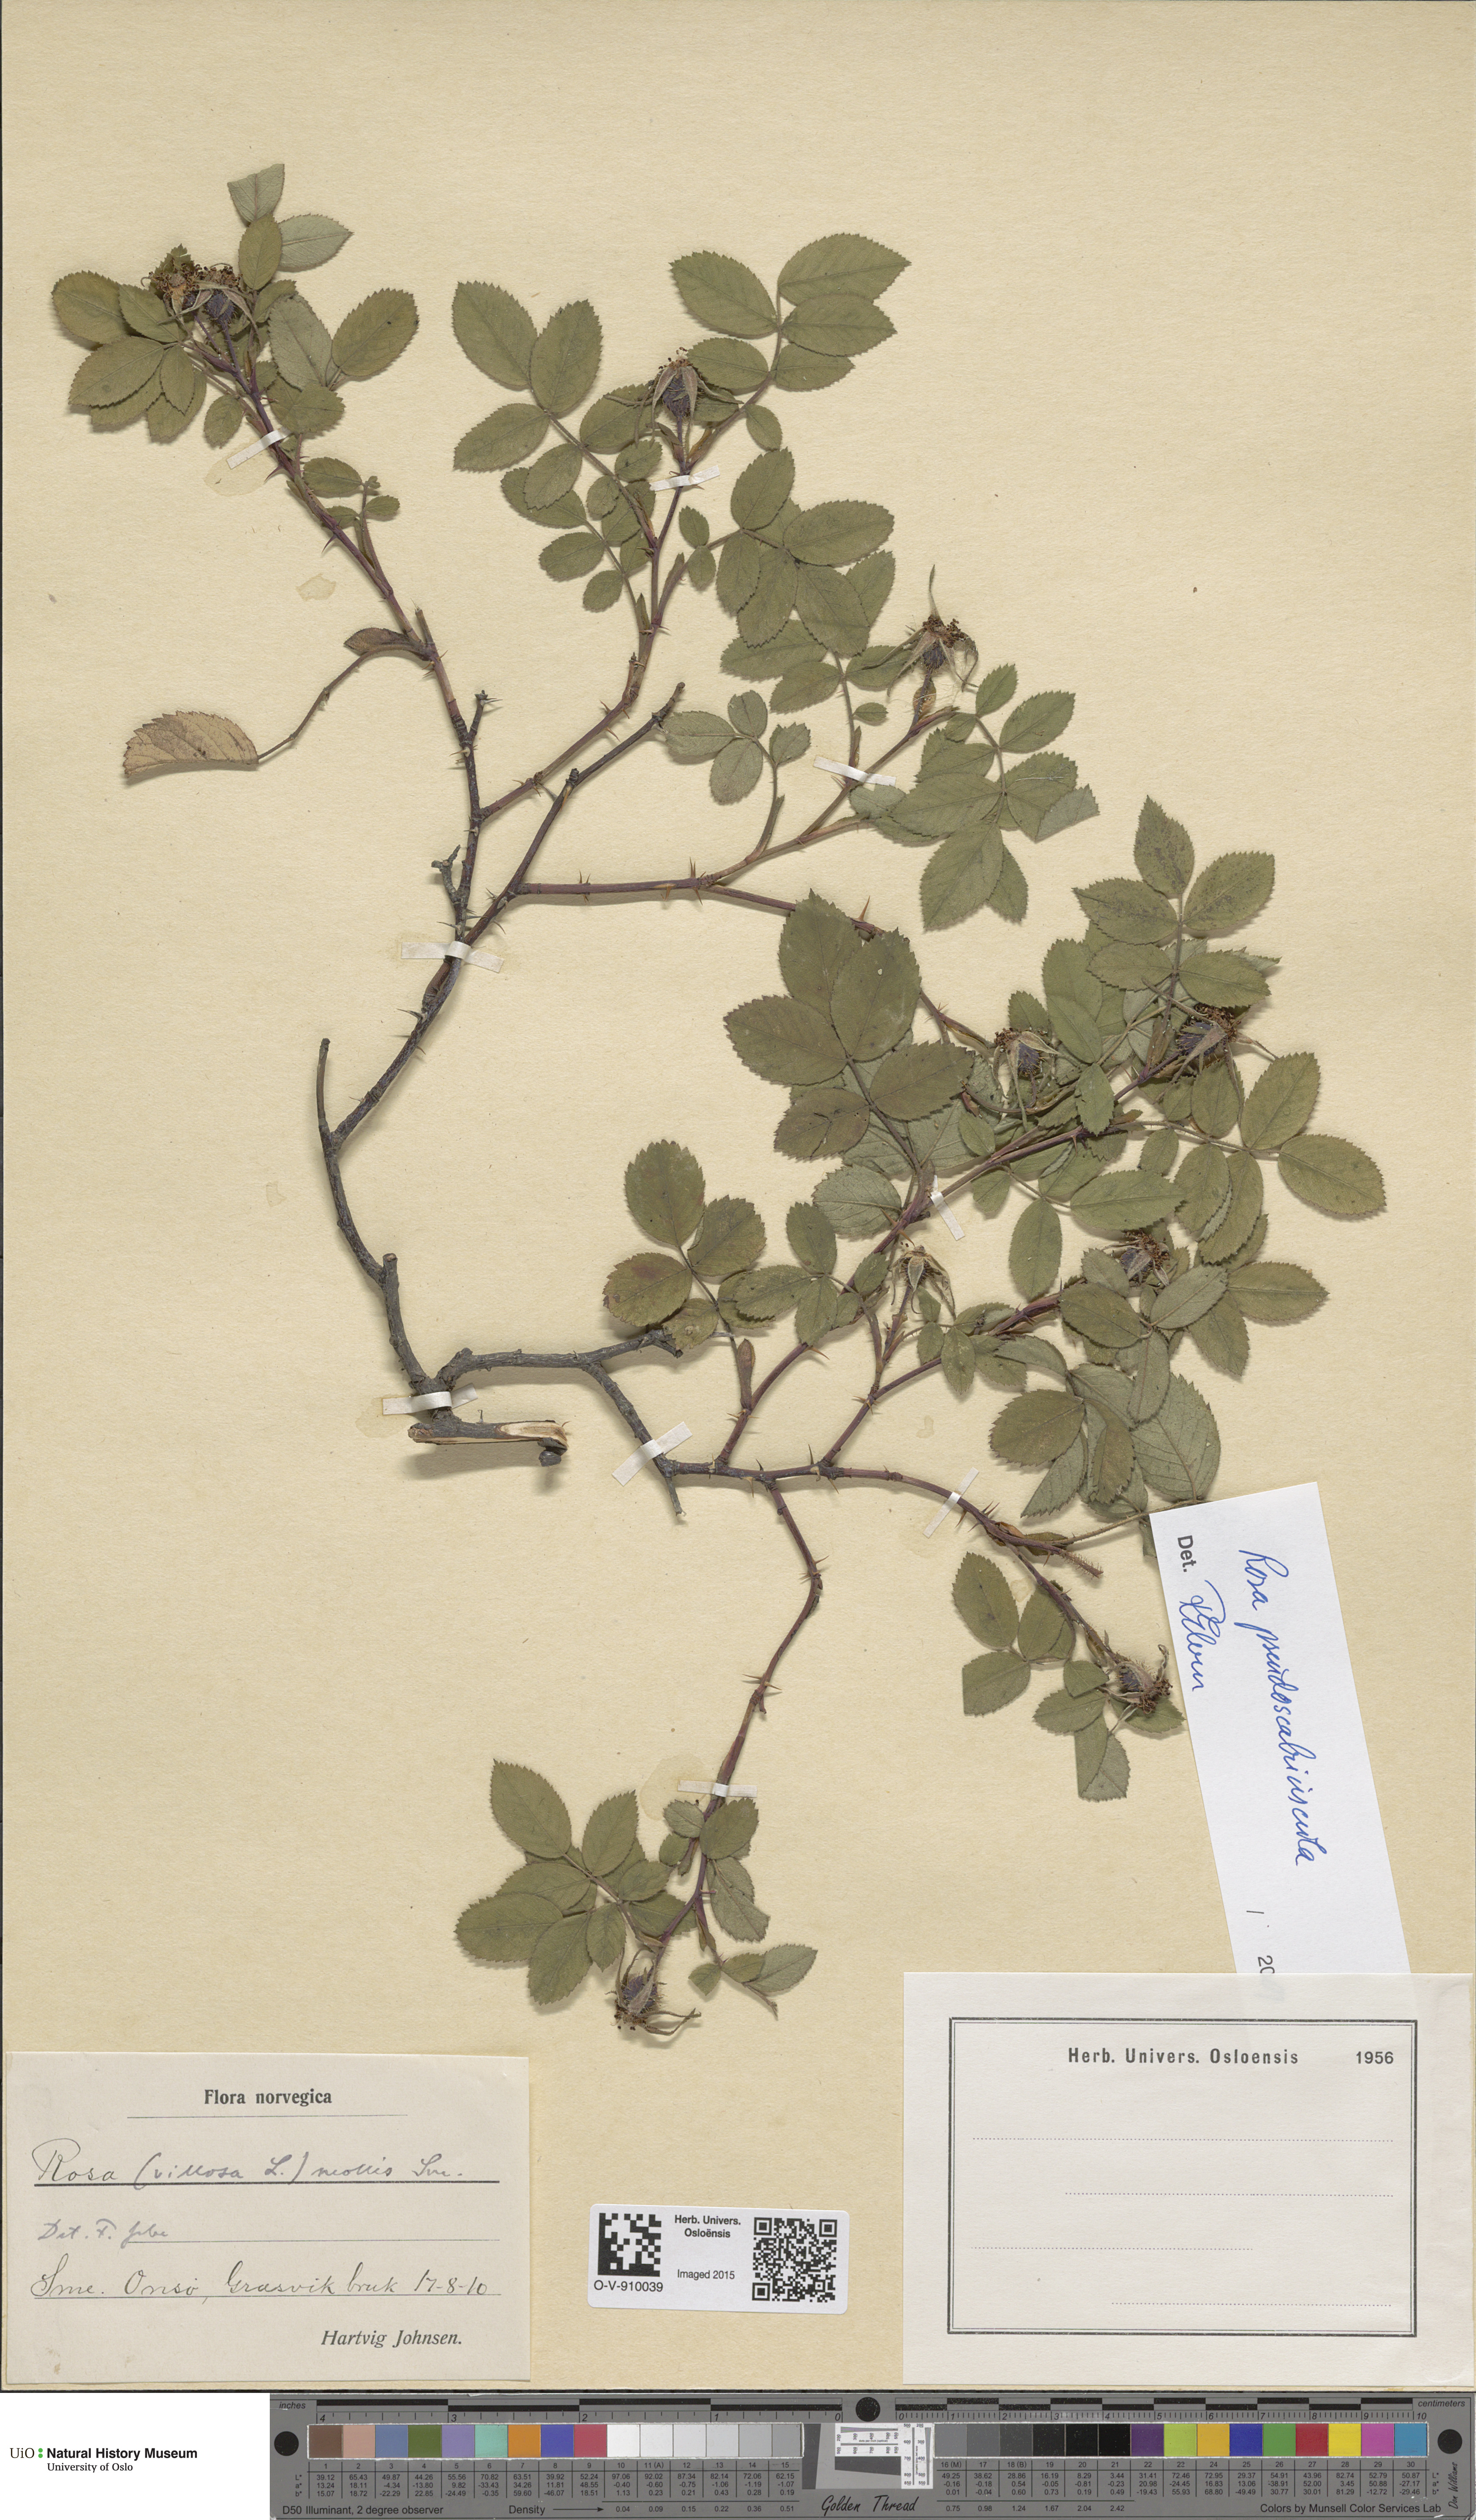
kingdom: Plantae
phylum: Tracheophyta
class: Magnoliopsida
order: Rosales
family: Rosaceae
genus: Rosa
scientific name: Rosa suberectiformis
